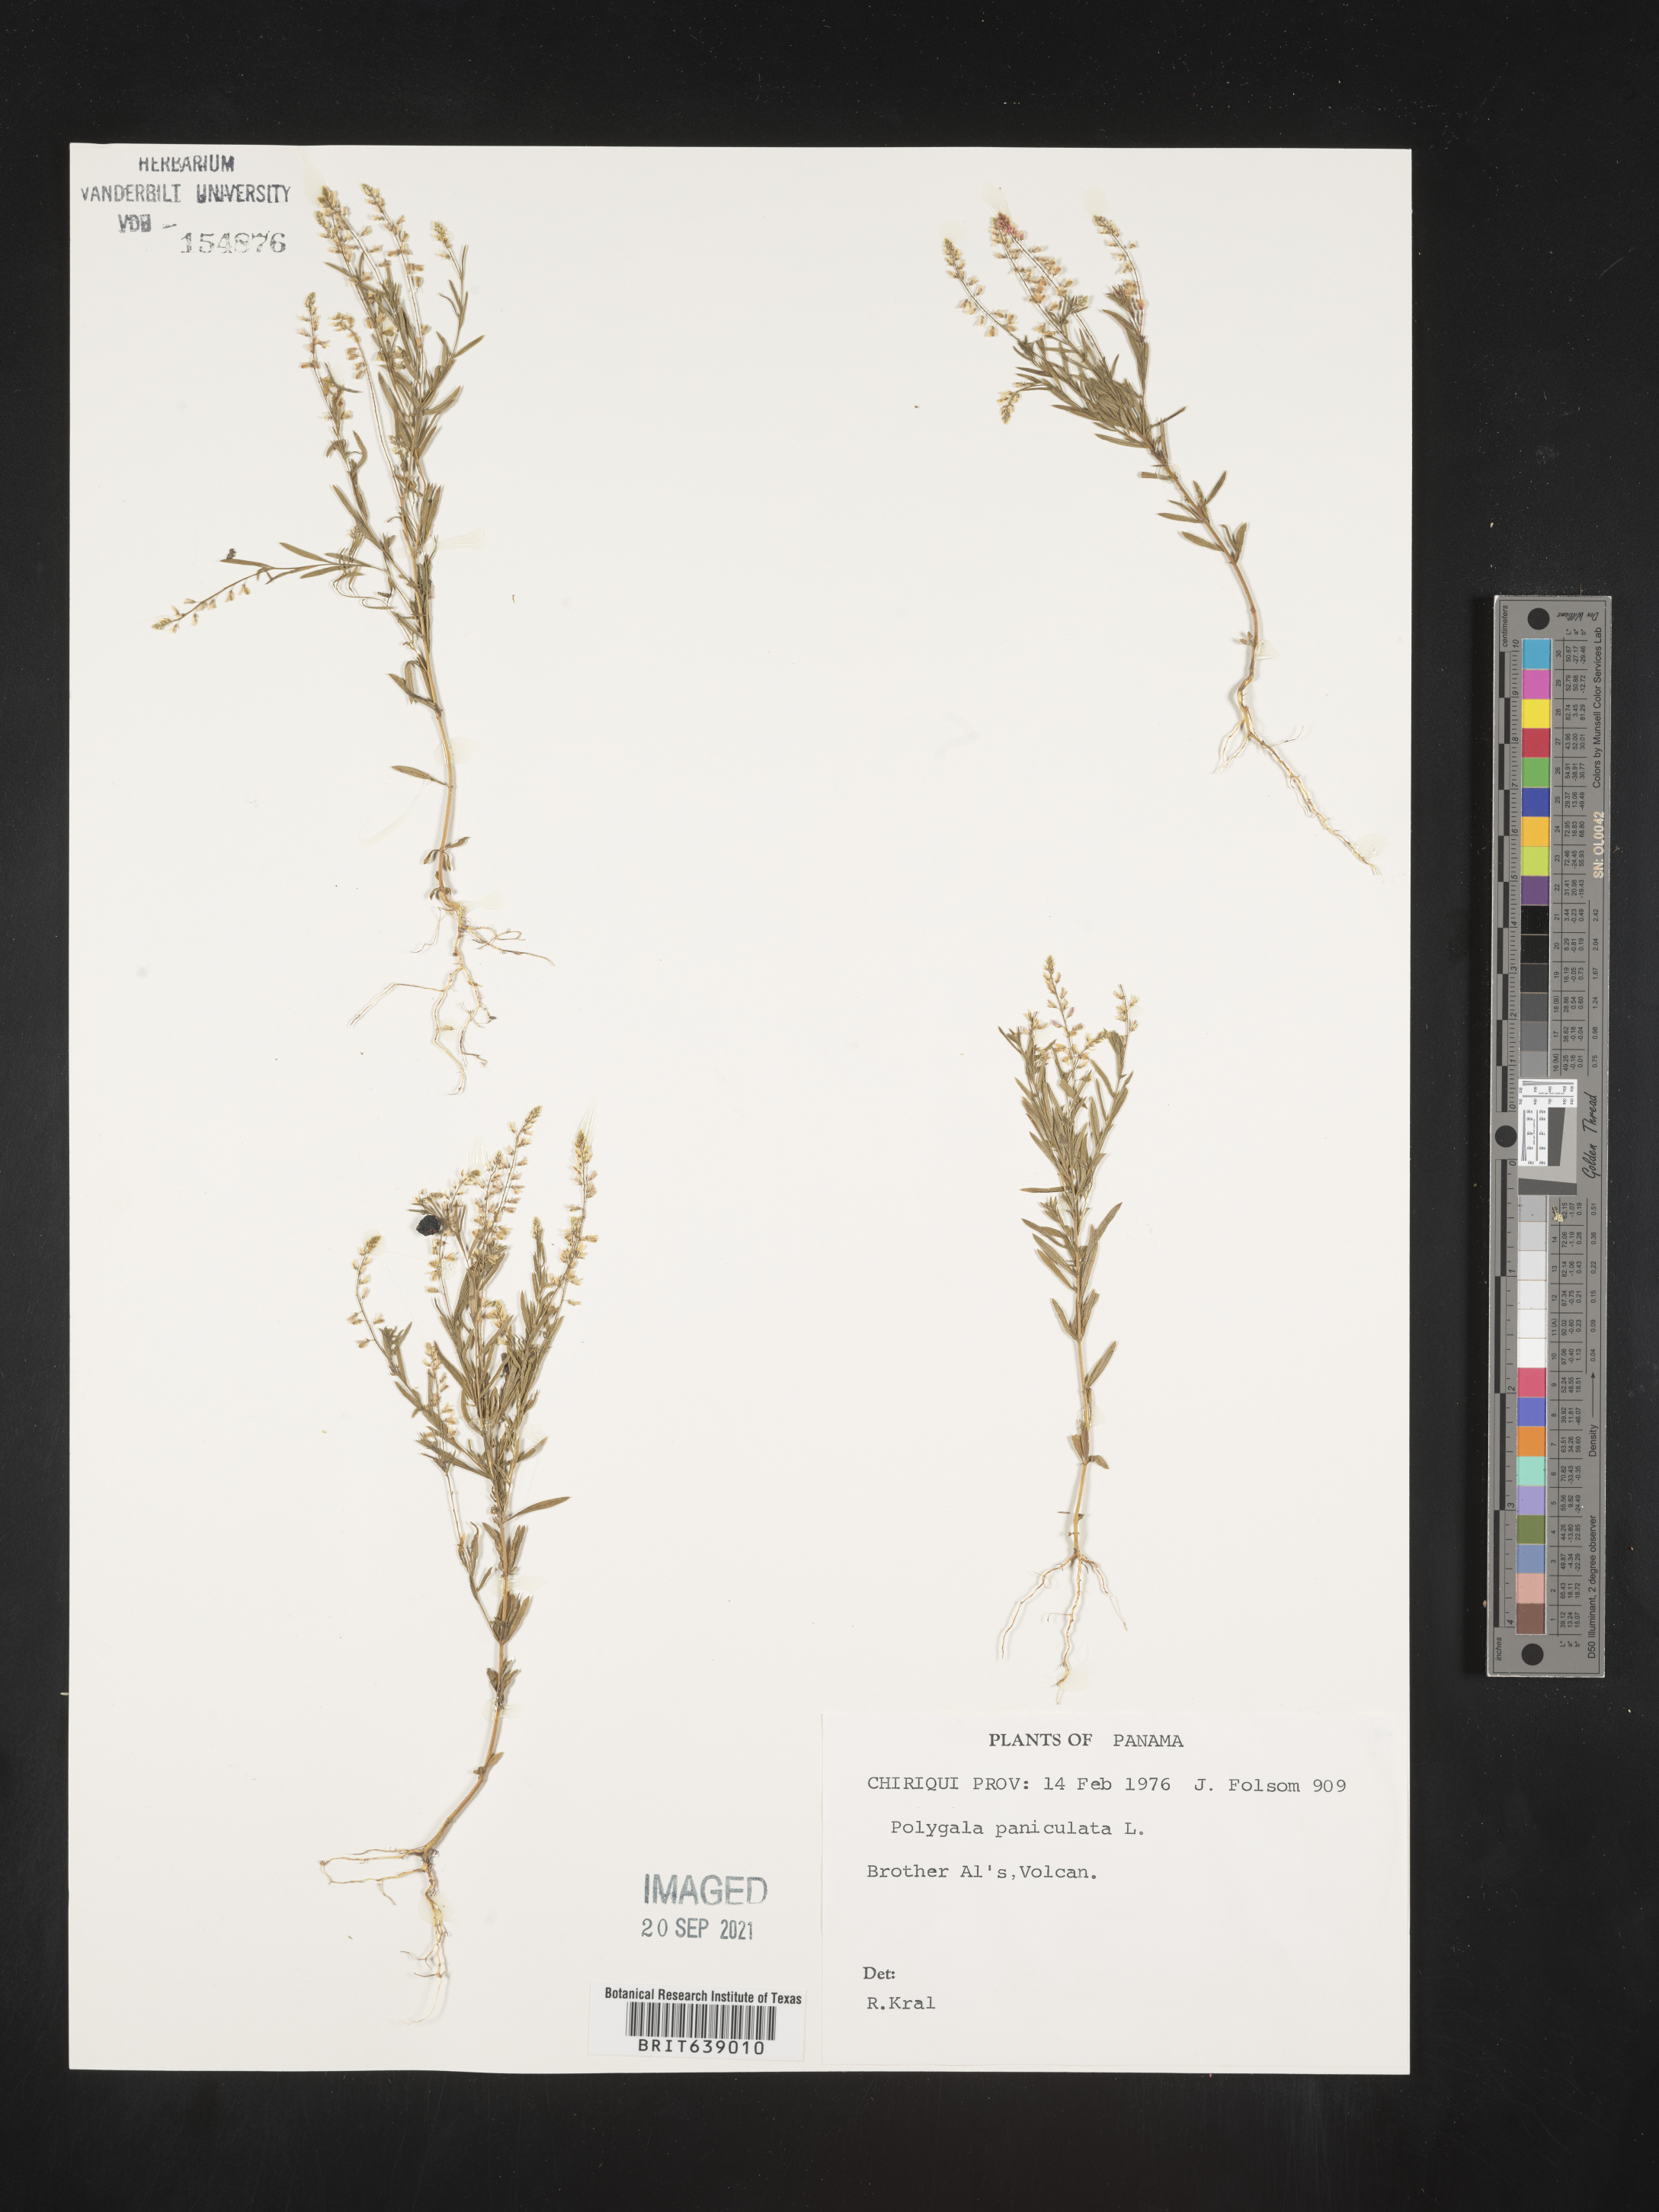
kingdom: Plantae
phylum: Tracheophyta
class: Magnoliopsida
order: Fabales
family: Polygalaceae
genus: Polygala
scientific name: Polygala
